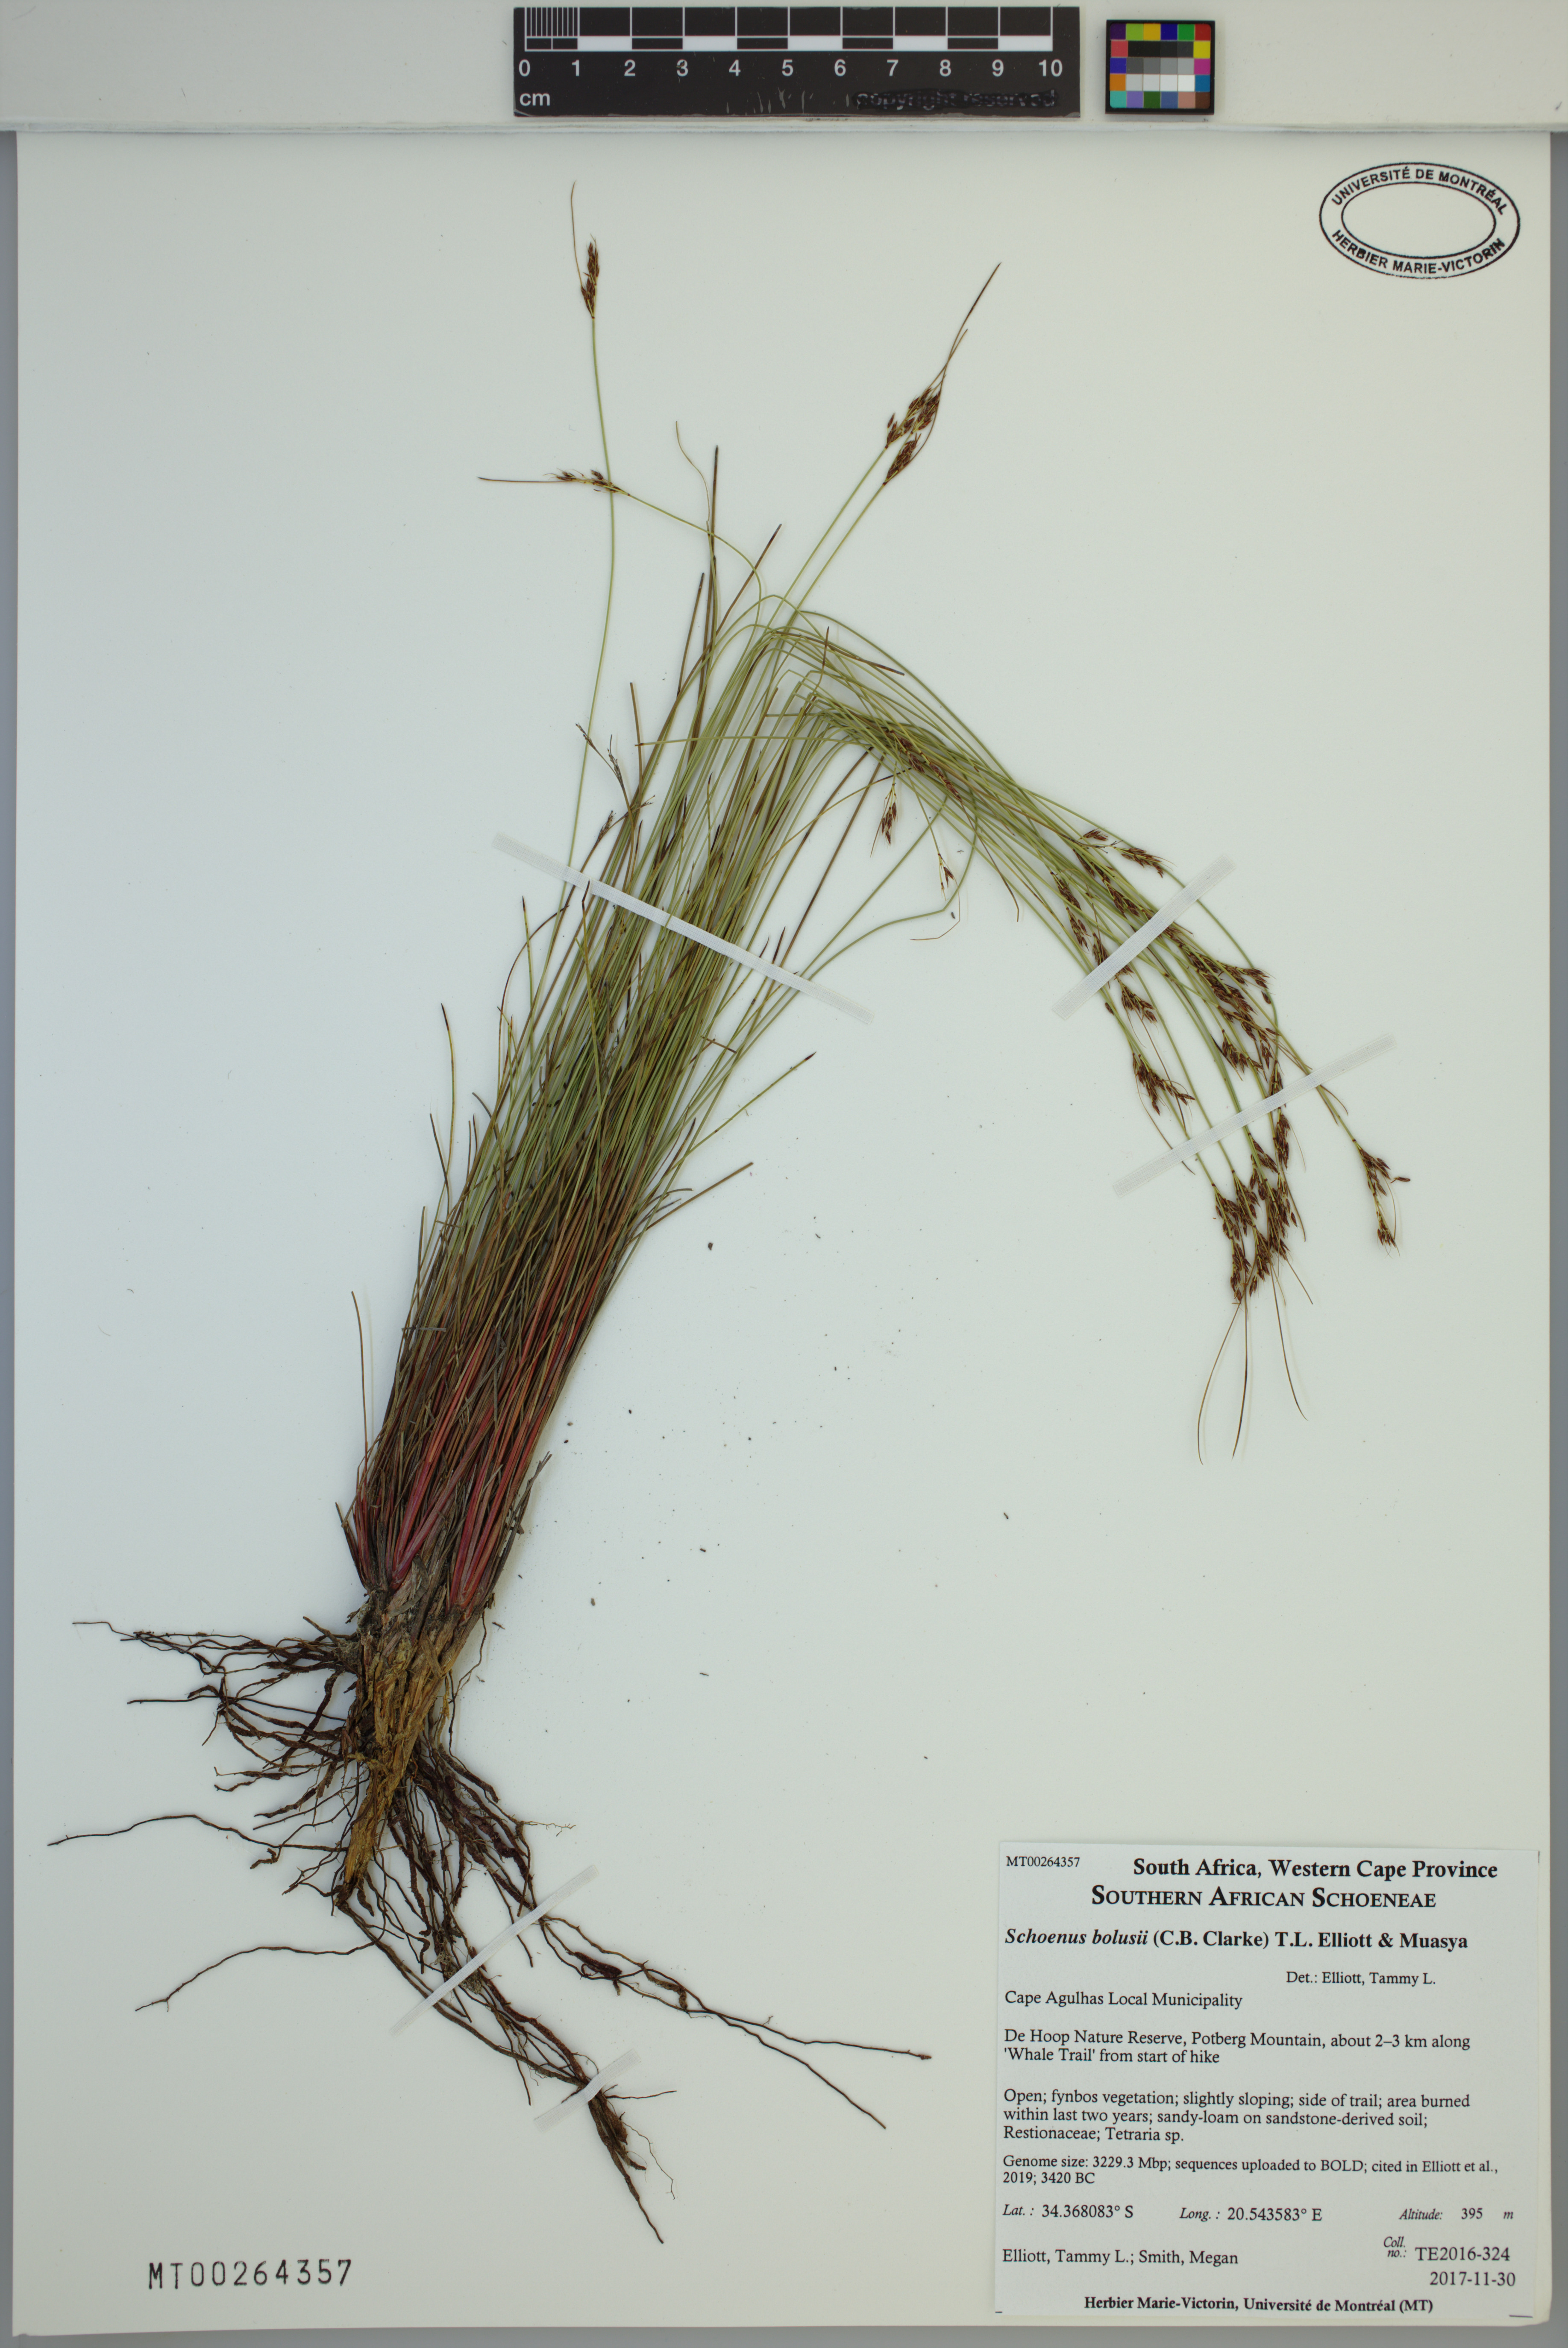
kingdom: Plantae
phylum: Tracheophyta
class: Liliopsida
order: Poales
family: Cyperaceae
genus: Schoenus
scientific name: Schoenus bolusii
